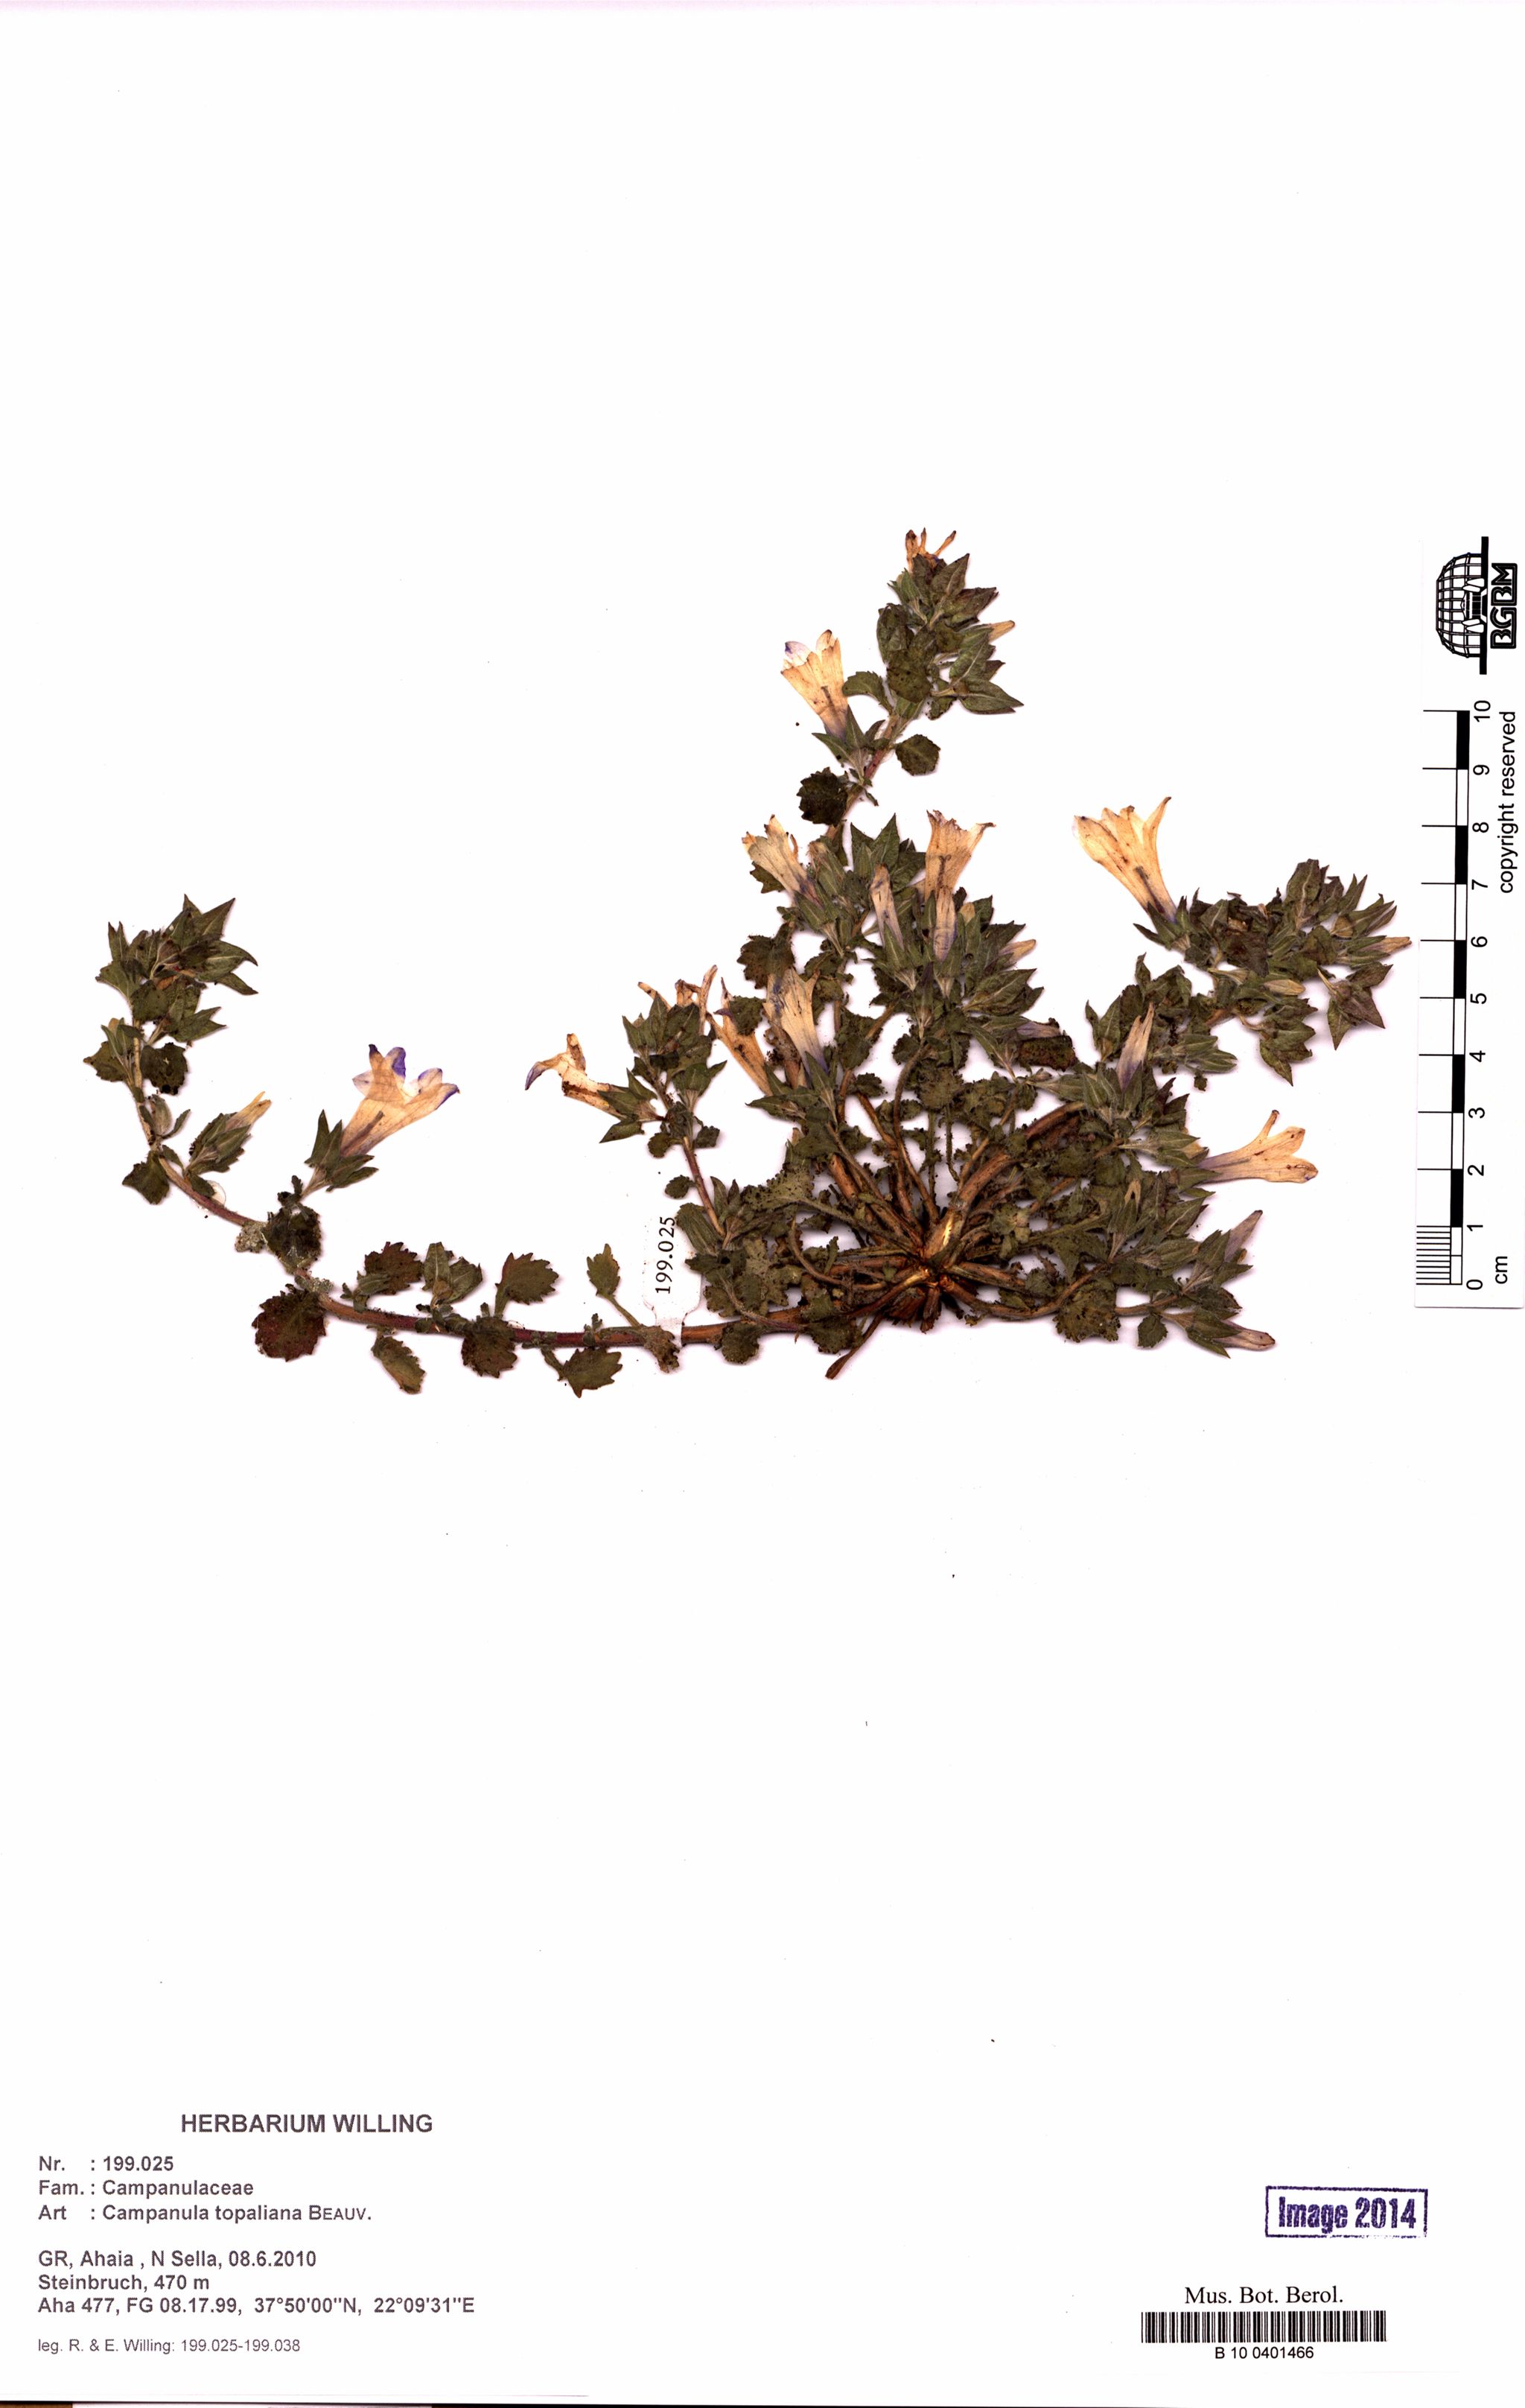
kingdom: Plantae
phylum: Tracheophyta
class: Magnoliopsida
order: Asterales
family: Campanulaceae
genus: Campanula
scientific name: Campanula topaliana
